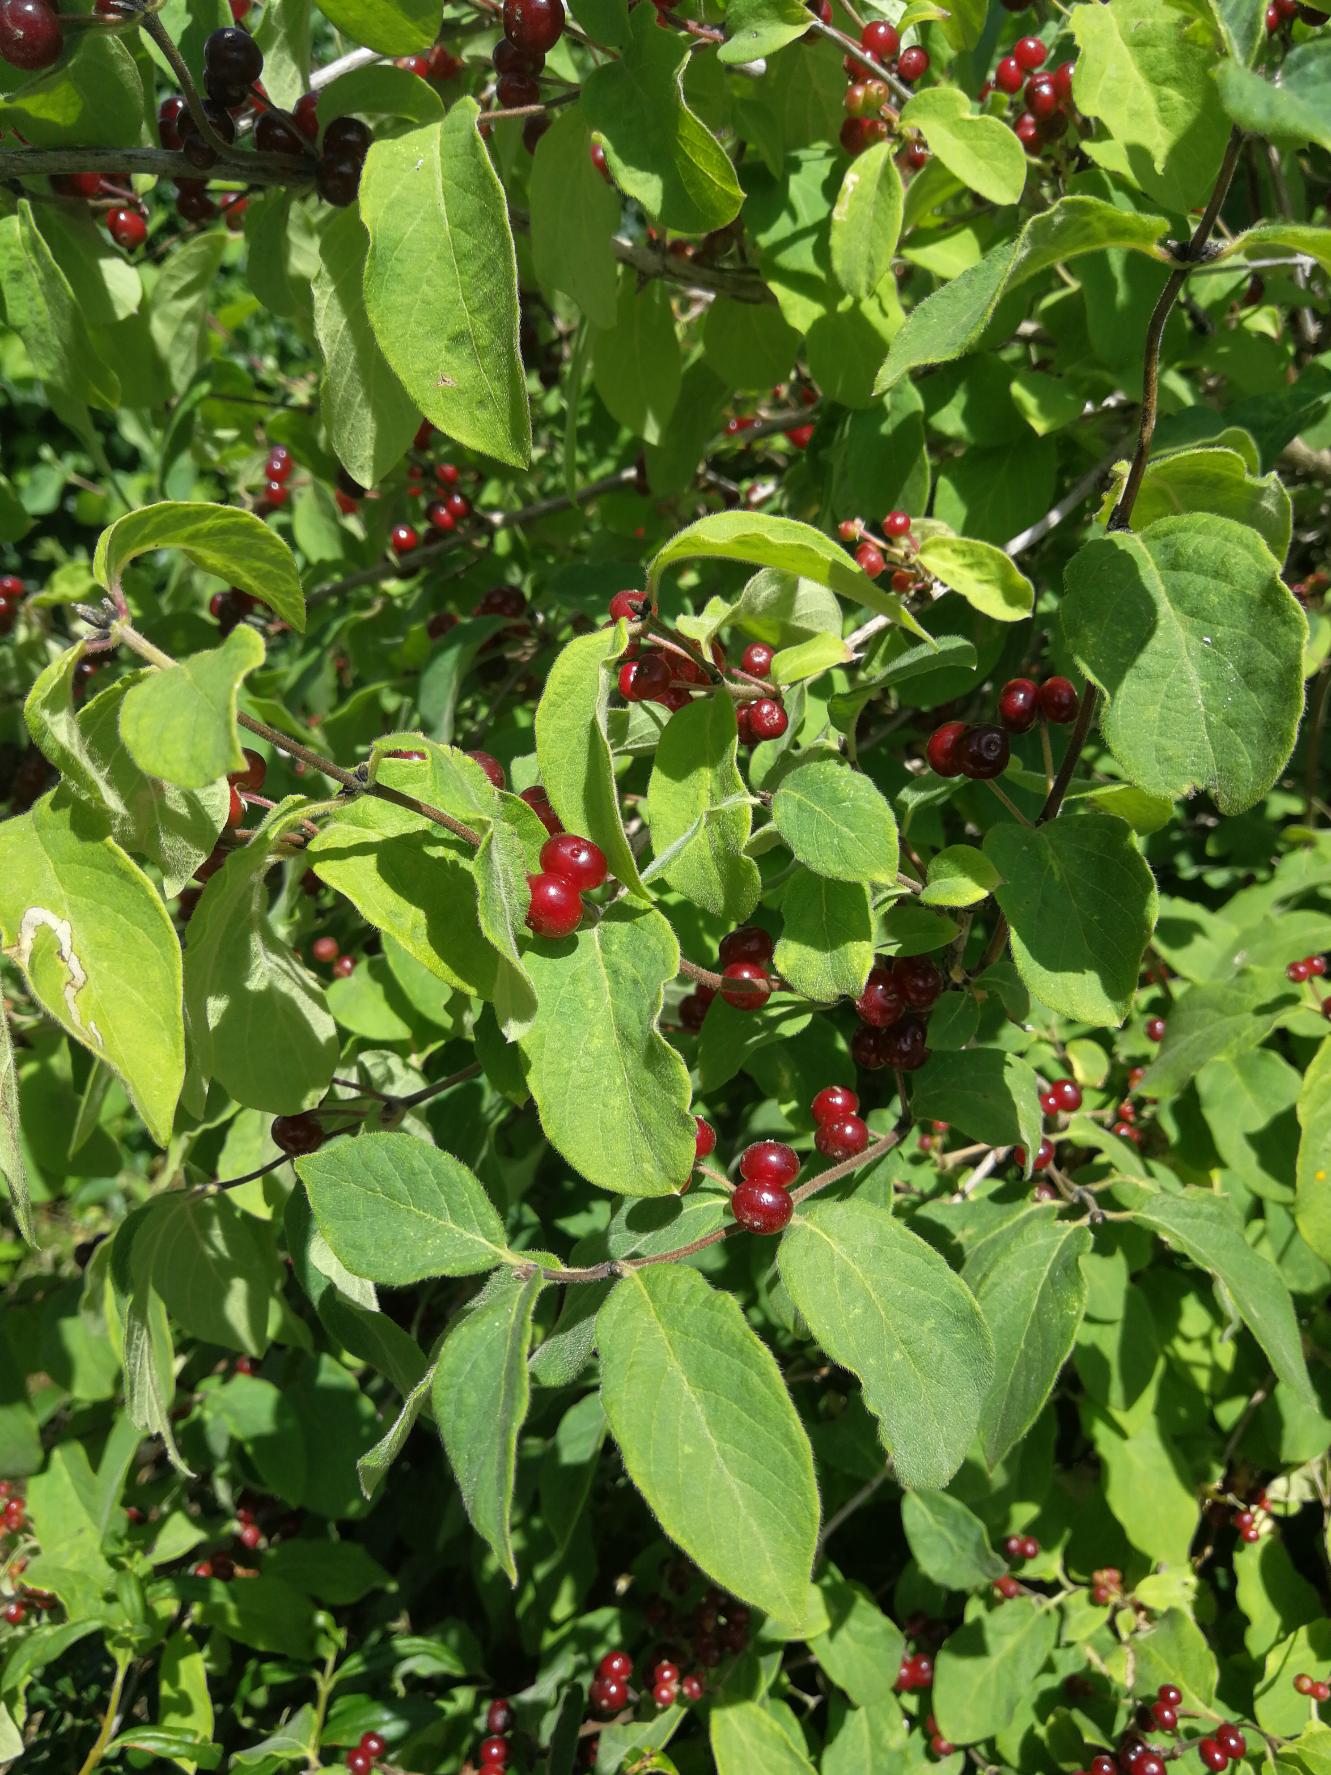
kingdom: Plantae
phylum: Tracheophyta
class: Magnoliopsida
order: Dipsacales
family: Caprifoliaceae
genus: Lonicera
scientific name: Lonicera xylosteum
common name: Dunet gedeblad
